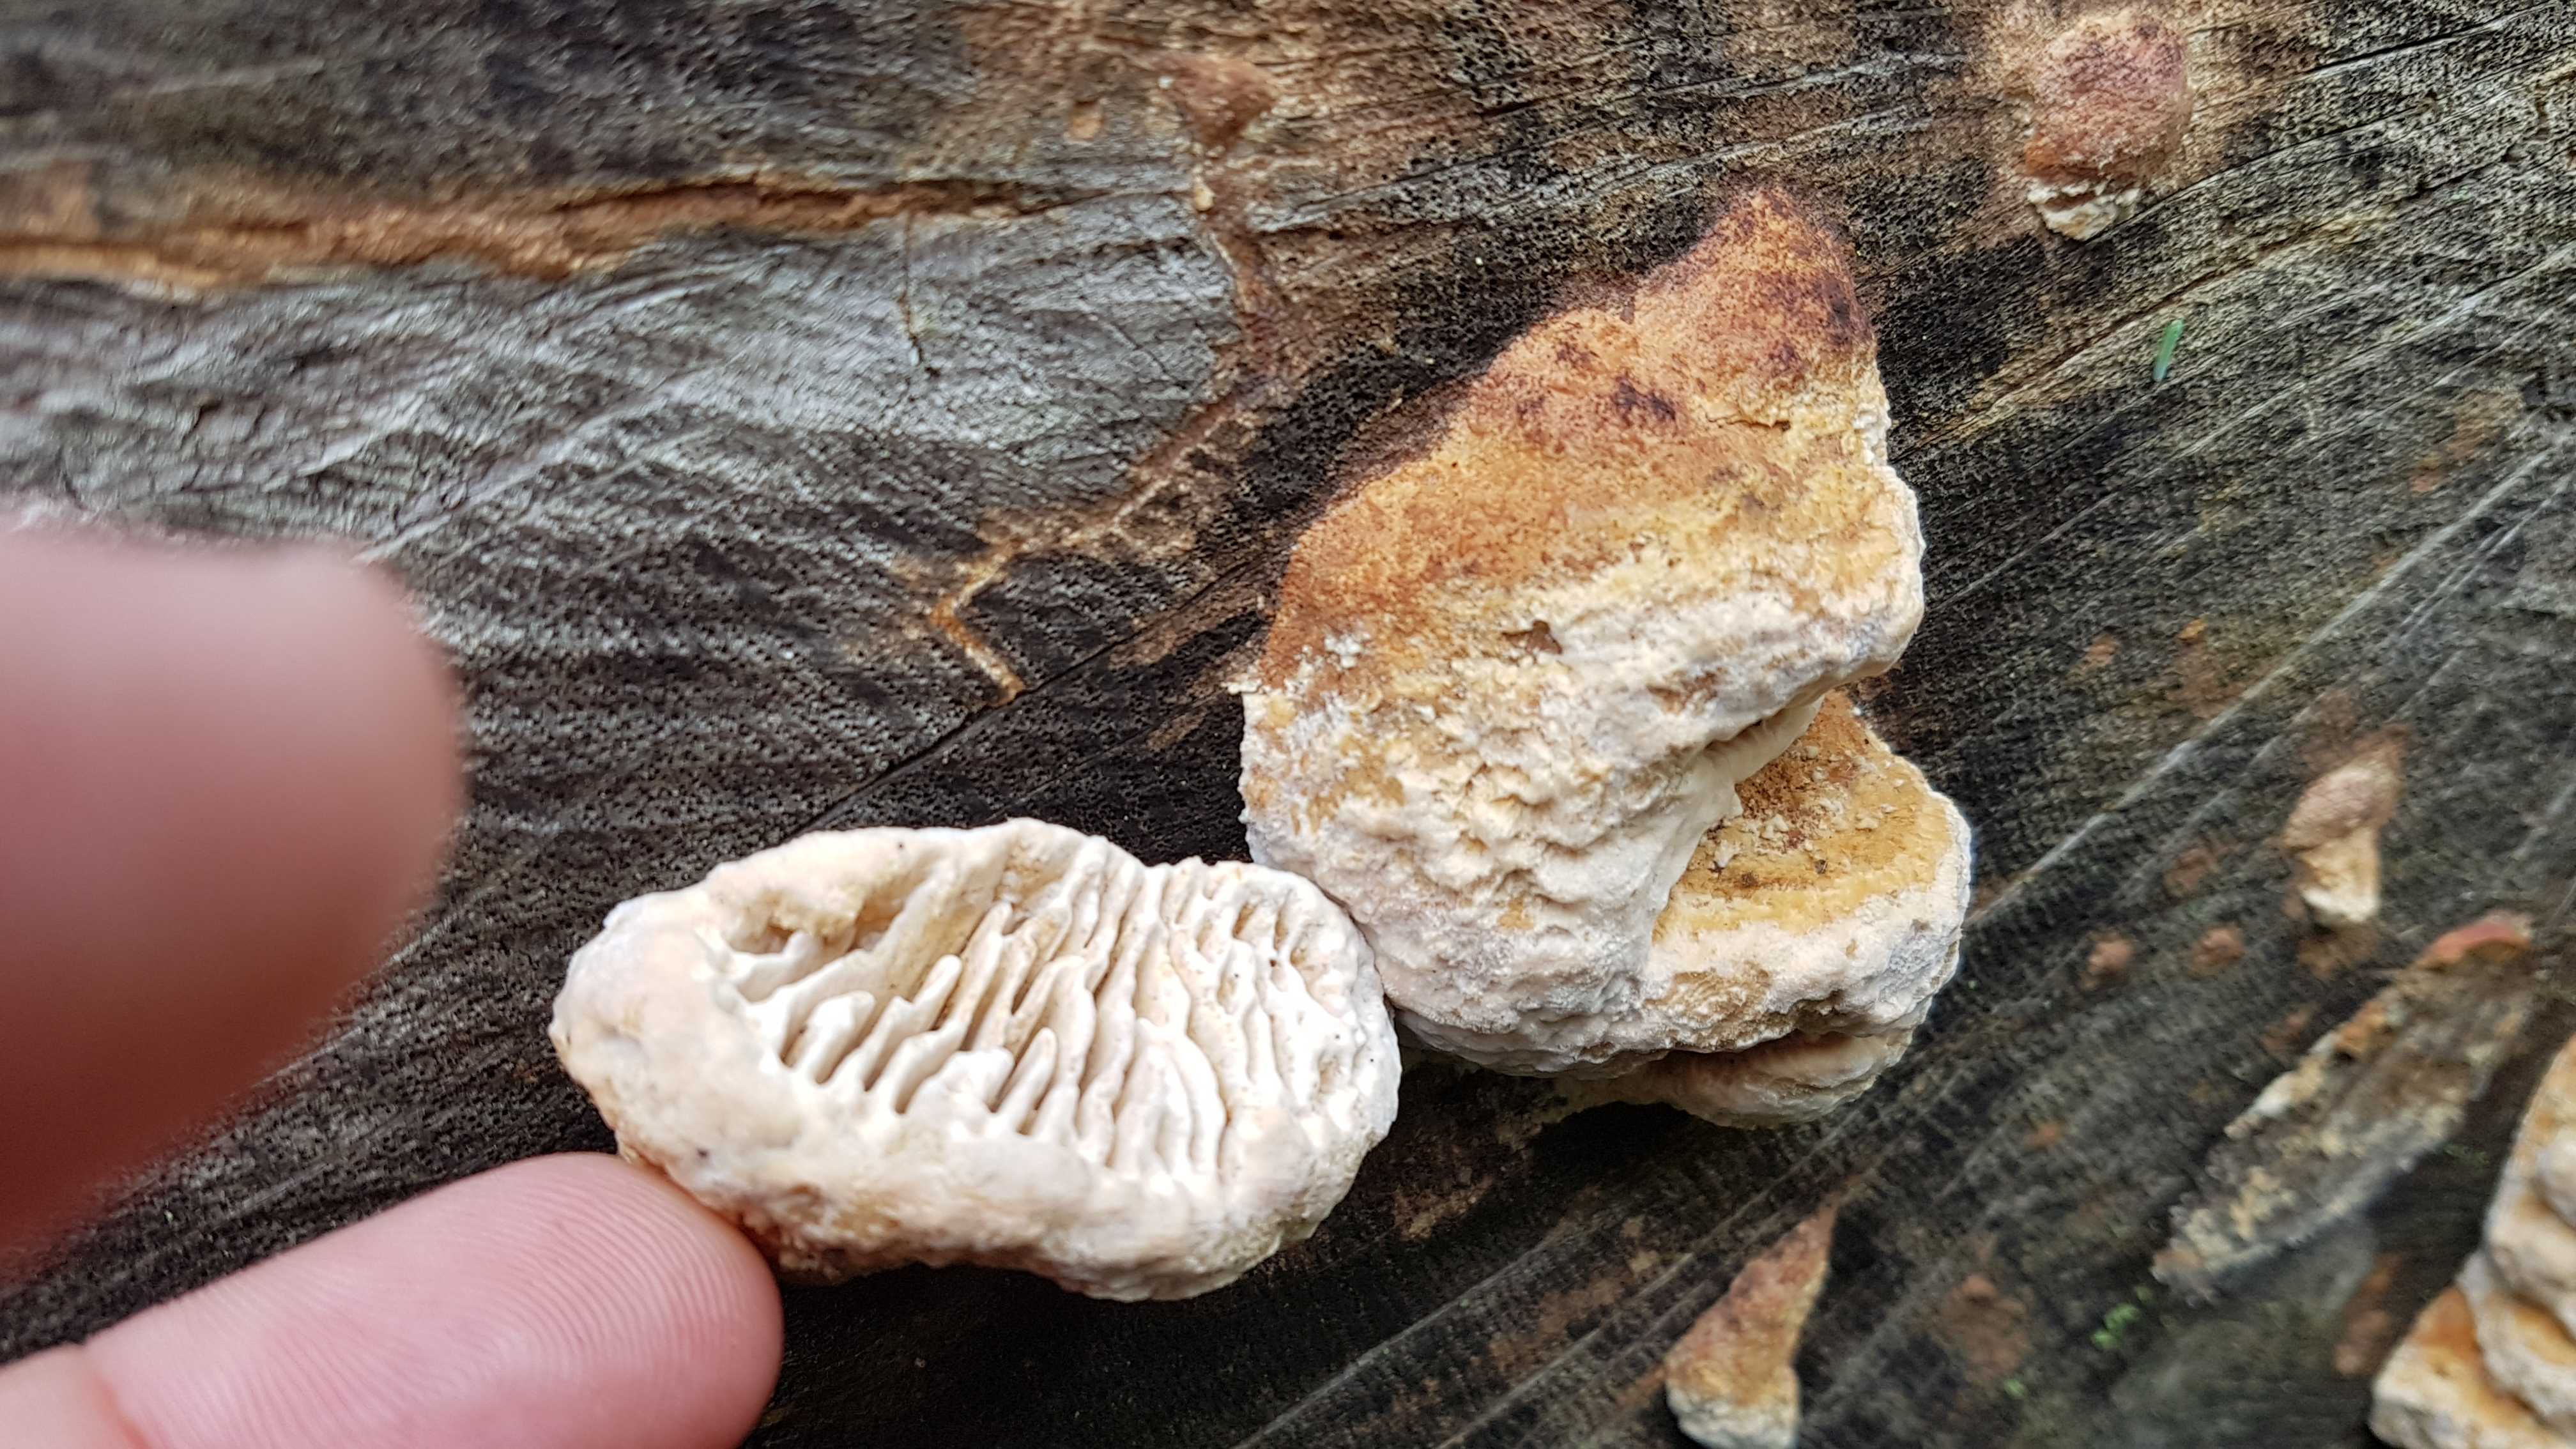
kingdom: Fungi
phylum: Basidiomycota
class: Agaricomycetes
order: Polyporales
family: Fomitopsidaceae
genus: Daedalea
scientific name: Daedalea quercina
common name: ege-labyrintsvamp
